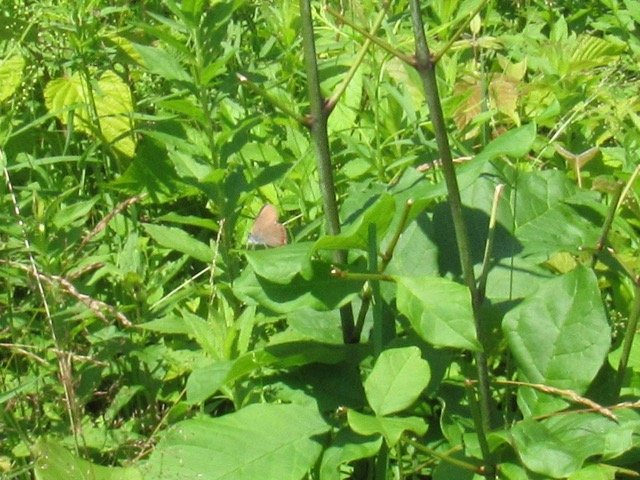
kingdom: Animalia
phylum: Arthropoda
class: Insecta
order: Lepidoptera
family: Lycaenidae
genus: Harkenclenus
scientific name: Harkenclenus titus
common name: Coral Hairstreak
